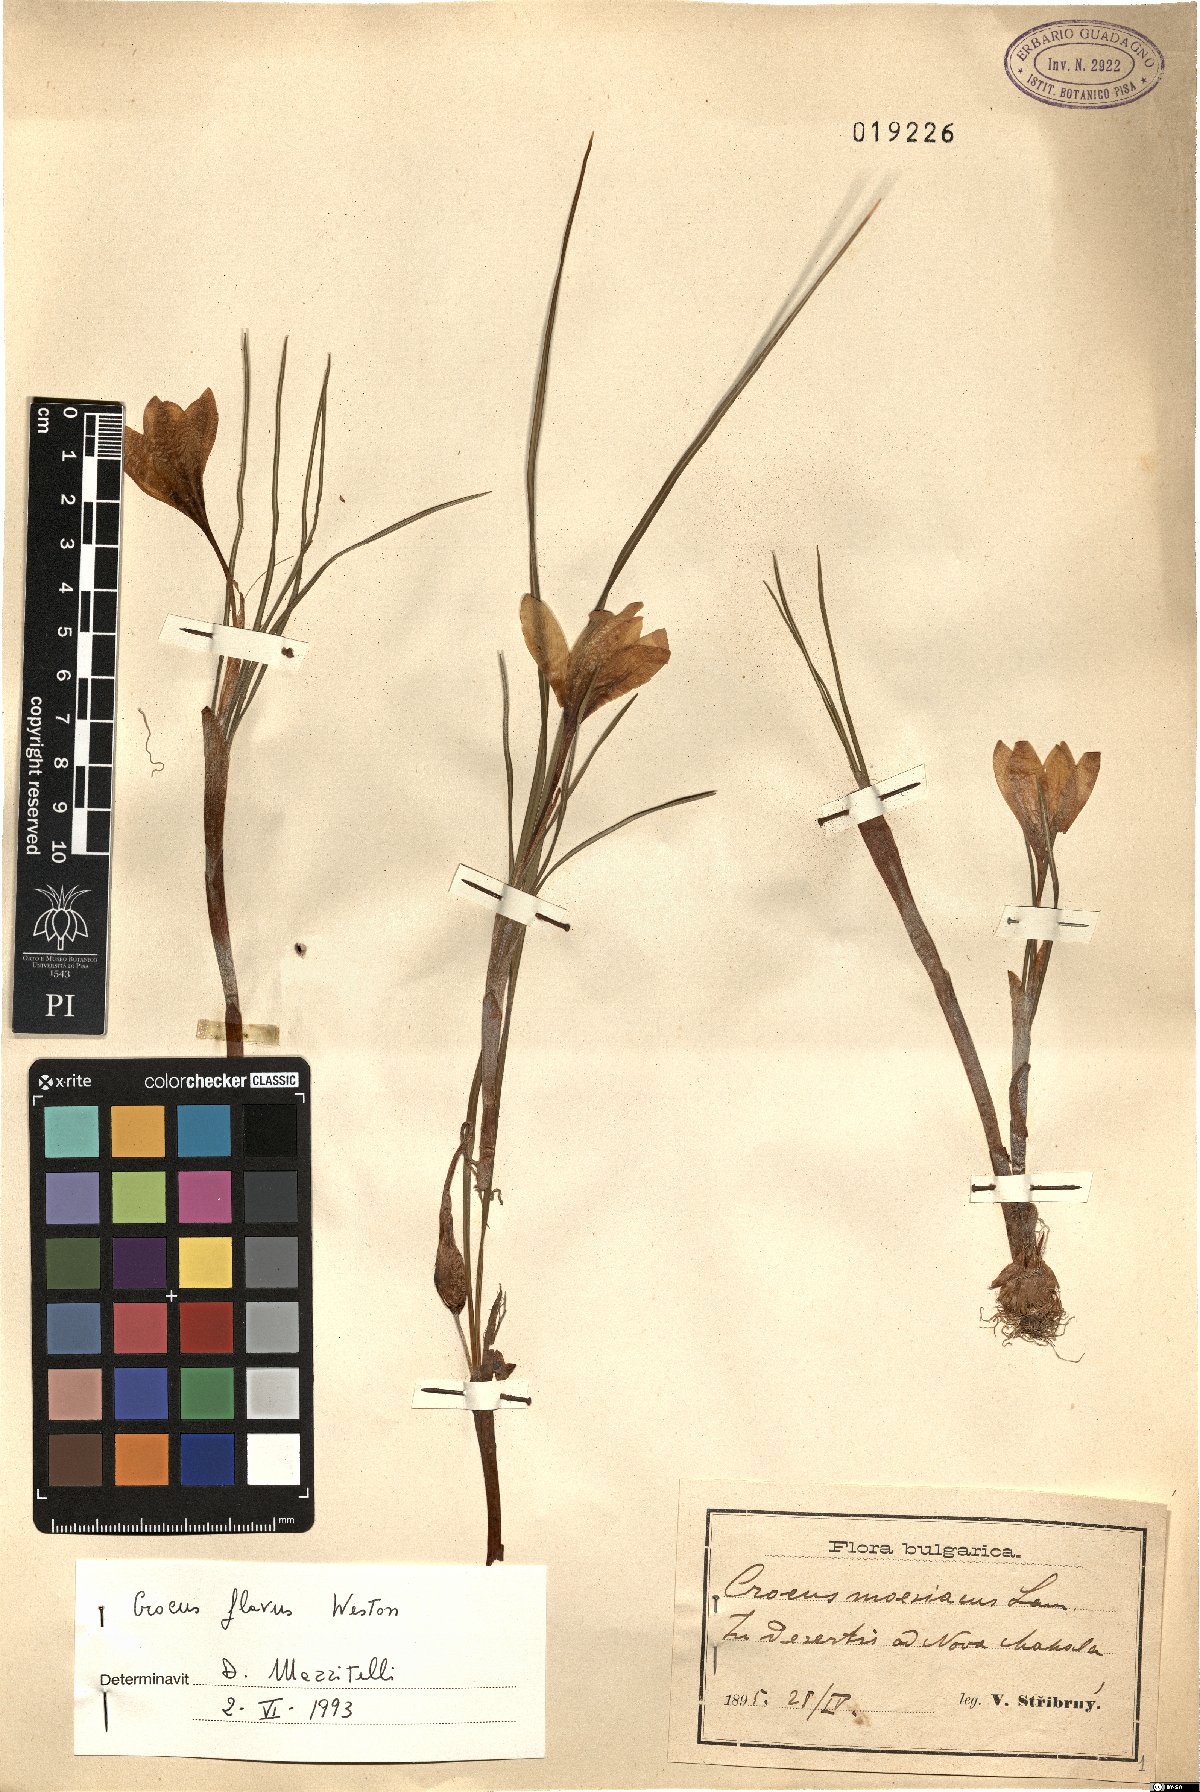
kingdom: Plantae
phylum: Tracheophyta
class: Liliopsida
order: Asparagales
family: Iridaceae
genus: Crocus
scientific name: Crocus flavus
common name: Yellow crocus
